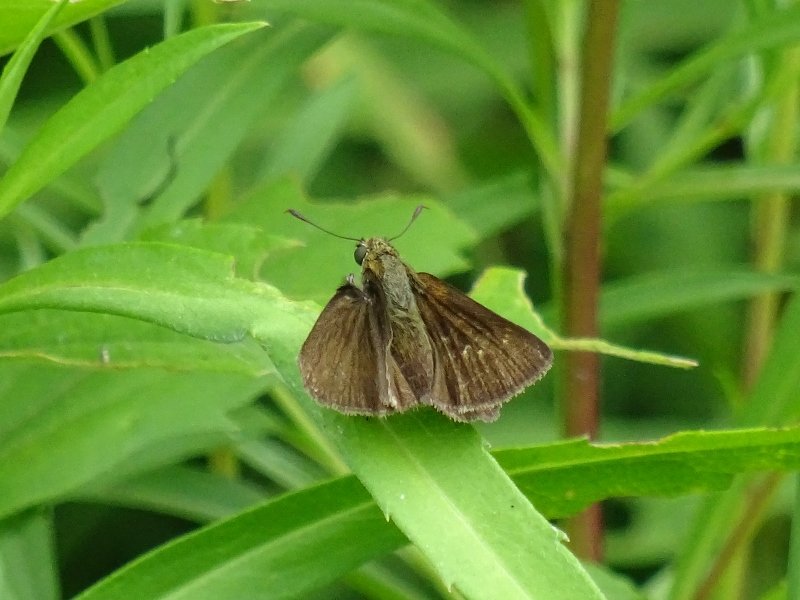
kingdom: Animalia
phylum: Arthropoda
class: Insecta
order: Lepidoptera
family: Hesperiidae
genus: Euphyes
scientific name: Euphyes vestris
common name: Dun Skipper
